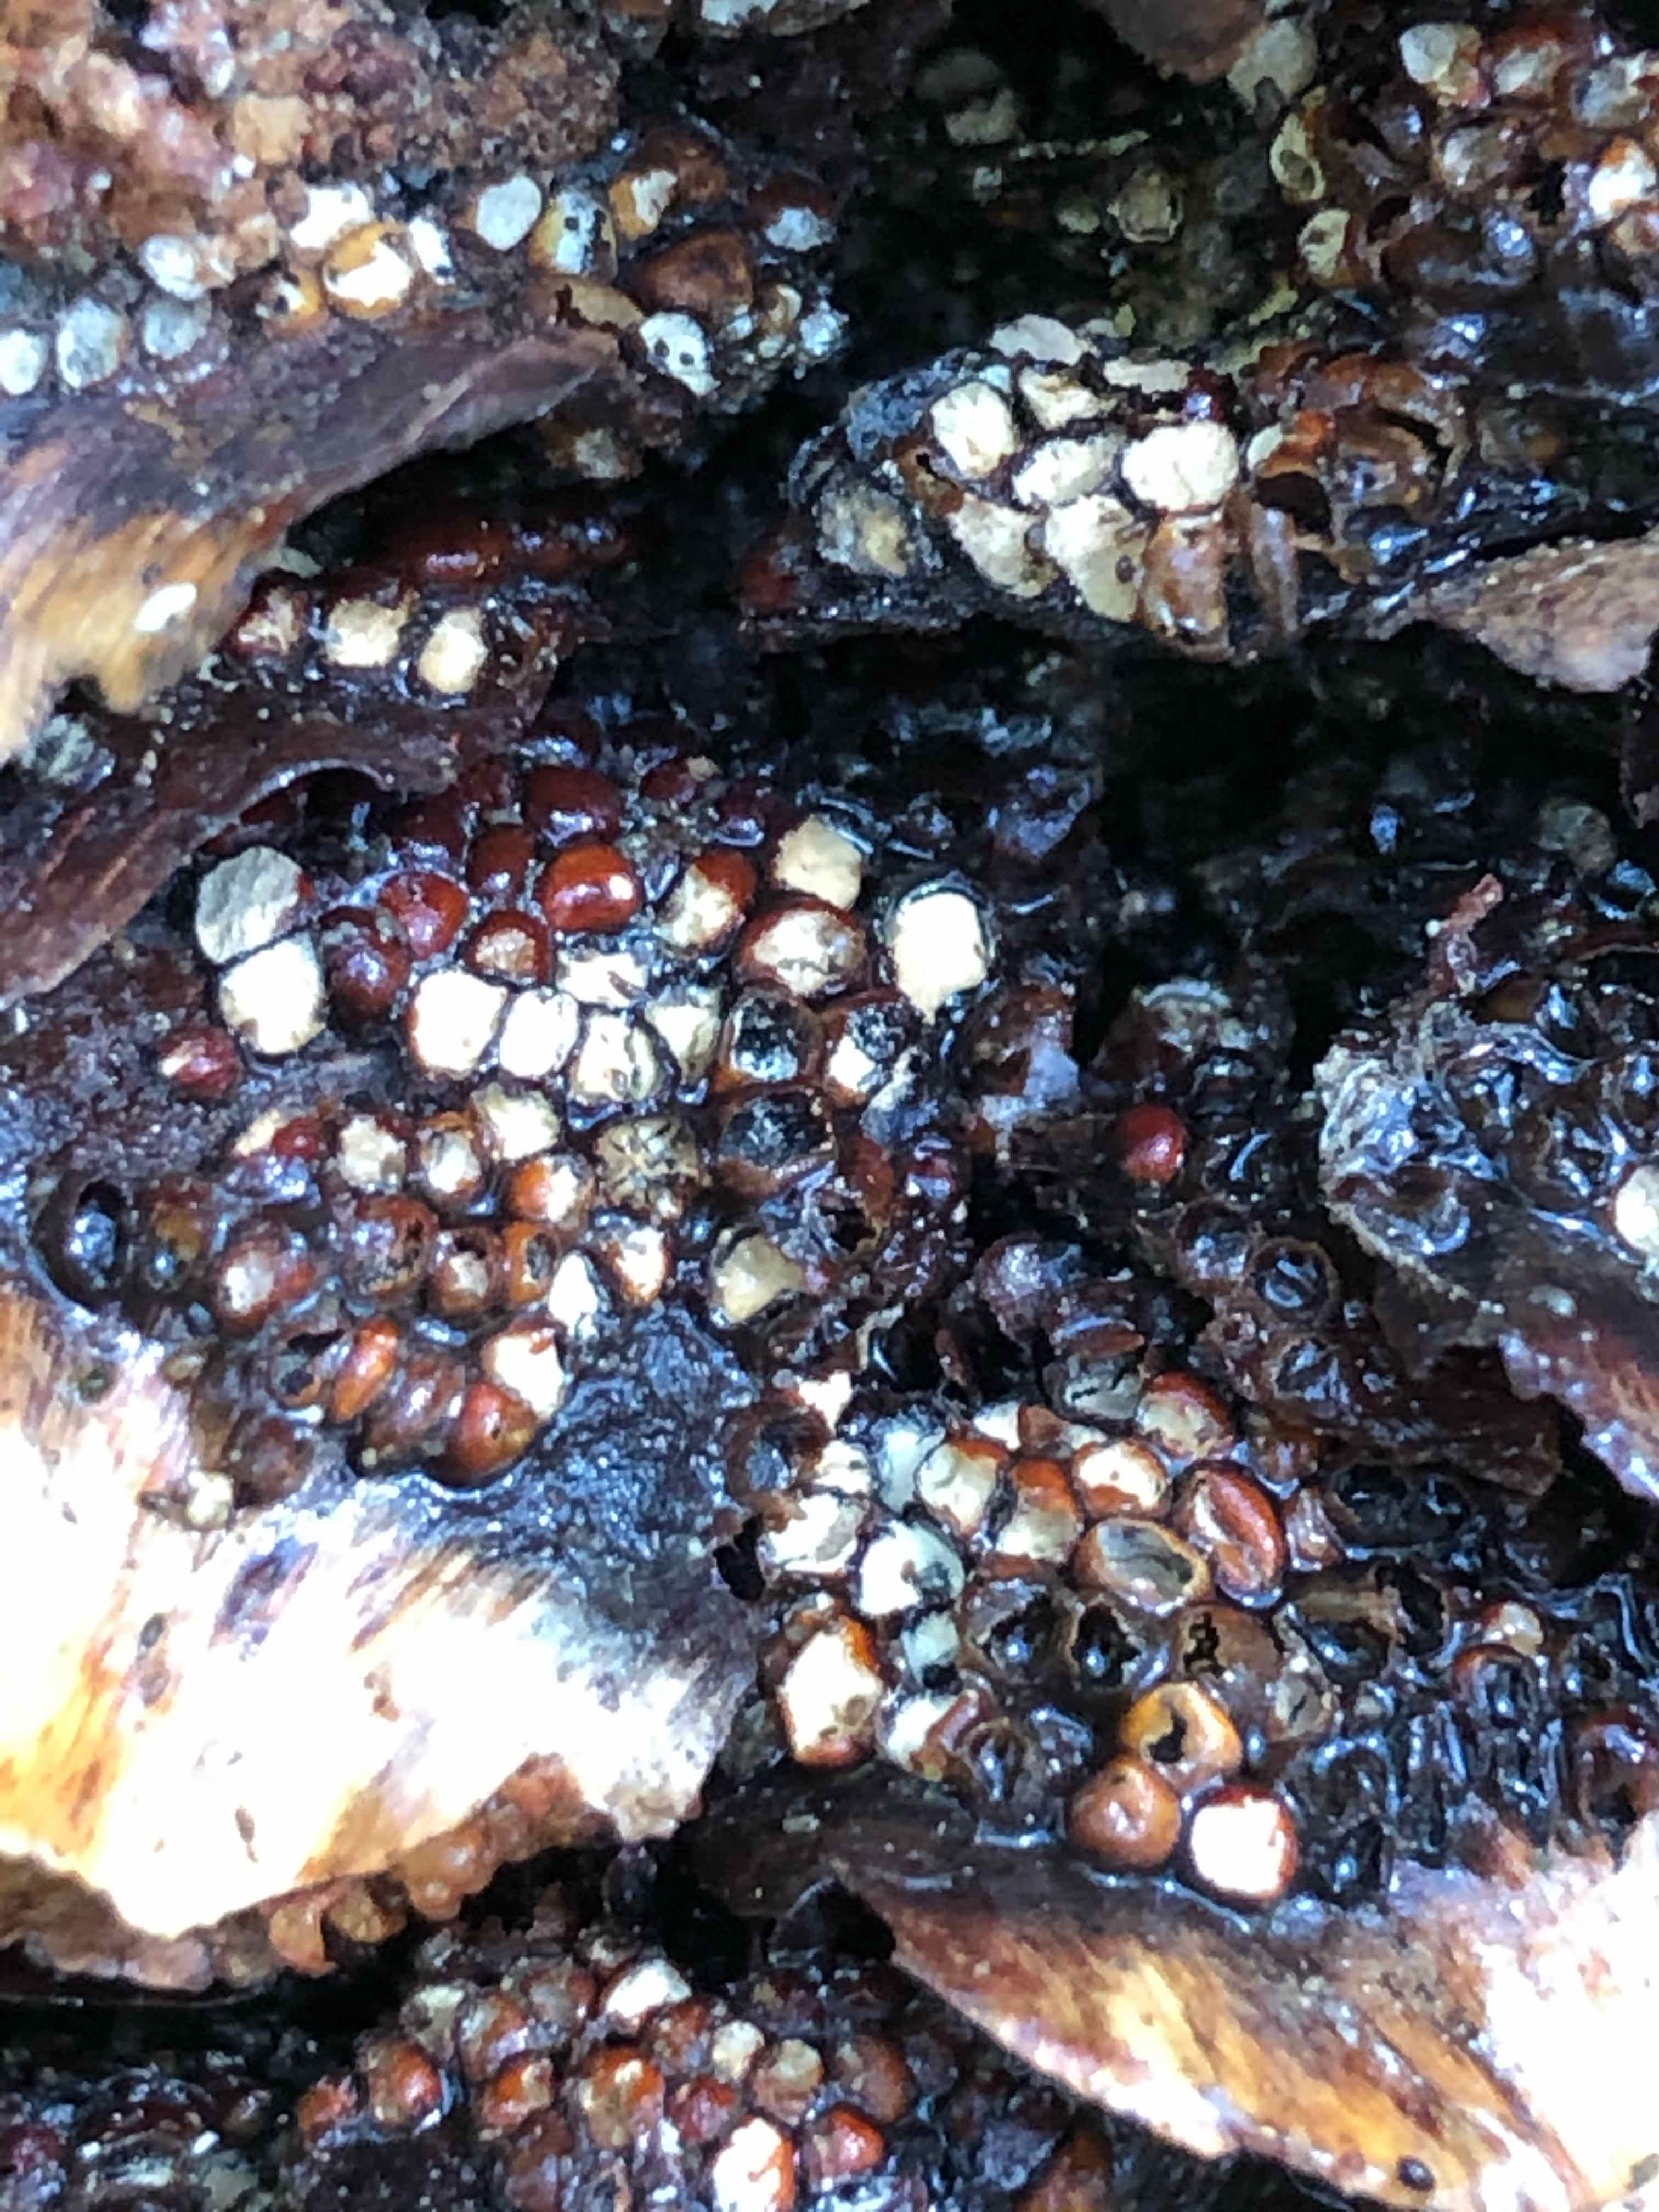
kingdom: Fungi
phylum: Basidiomycota
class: Pucciniomycetes
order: Pucciniales
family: Pucciniastraceae
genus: Thekopsora
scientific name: Thekopsora areolata
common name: grankogle-nålerust
